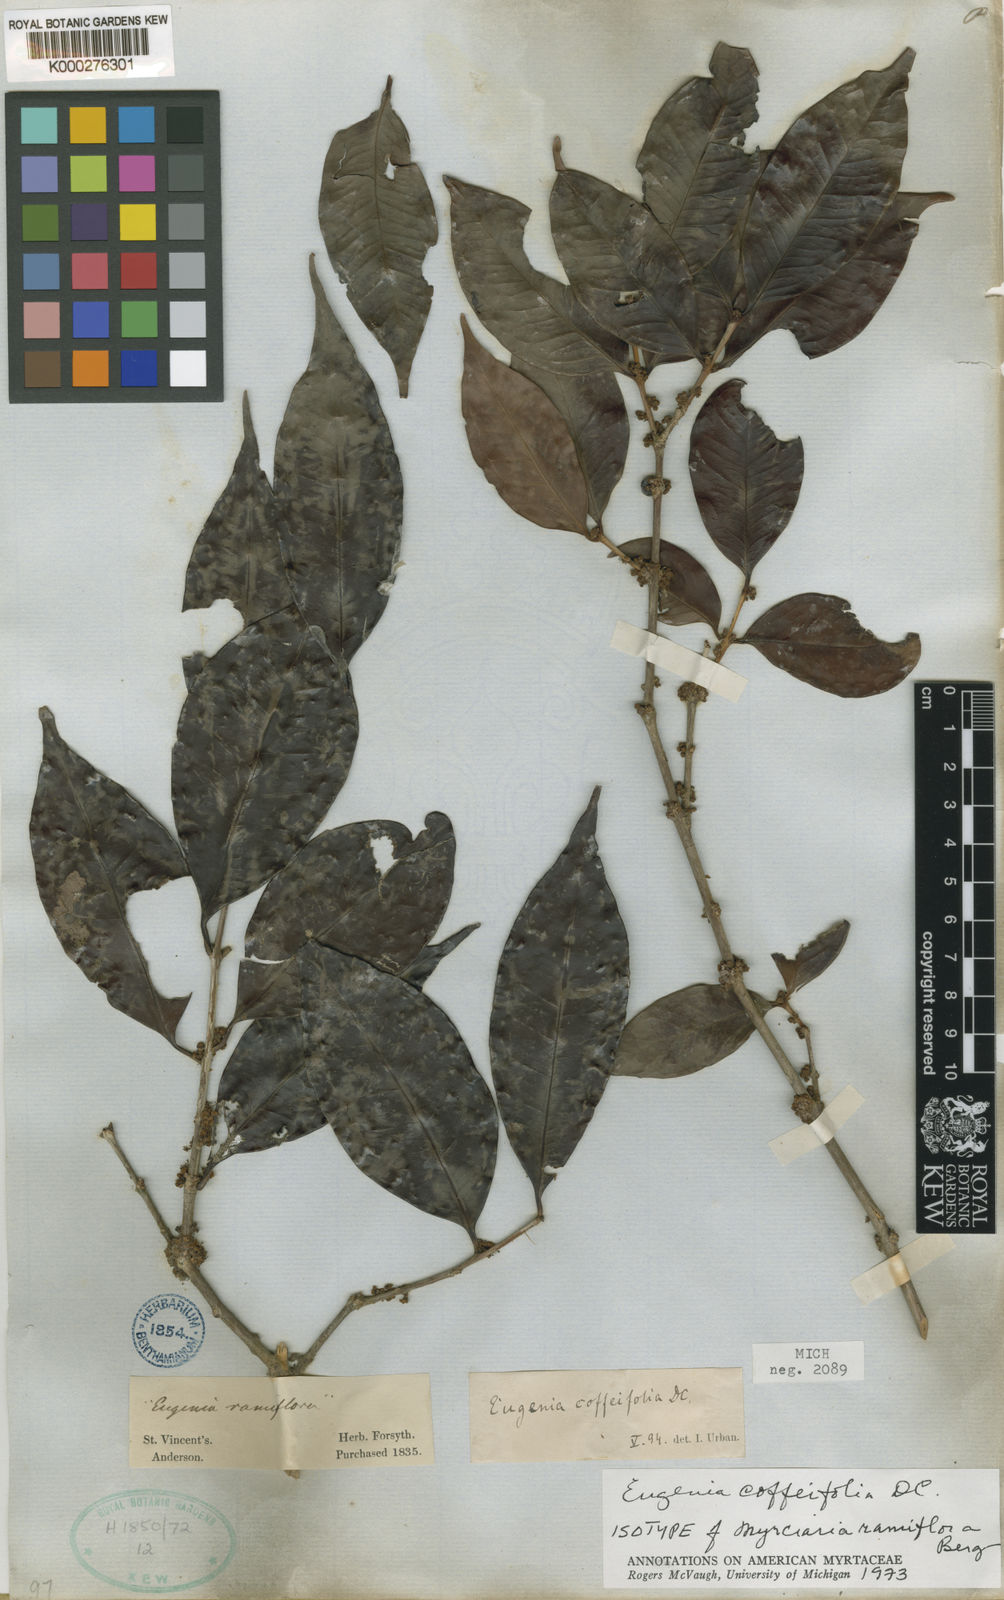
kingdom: Plantae
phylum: Tracheophyta
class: Magnoliopsida
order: Myrtales
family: Myrtaceae
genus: Eugenia
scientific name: Eugenia coffeifolia
